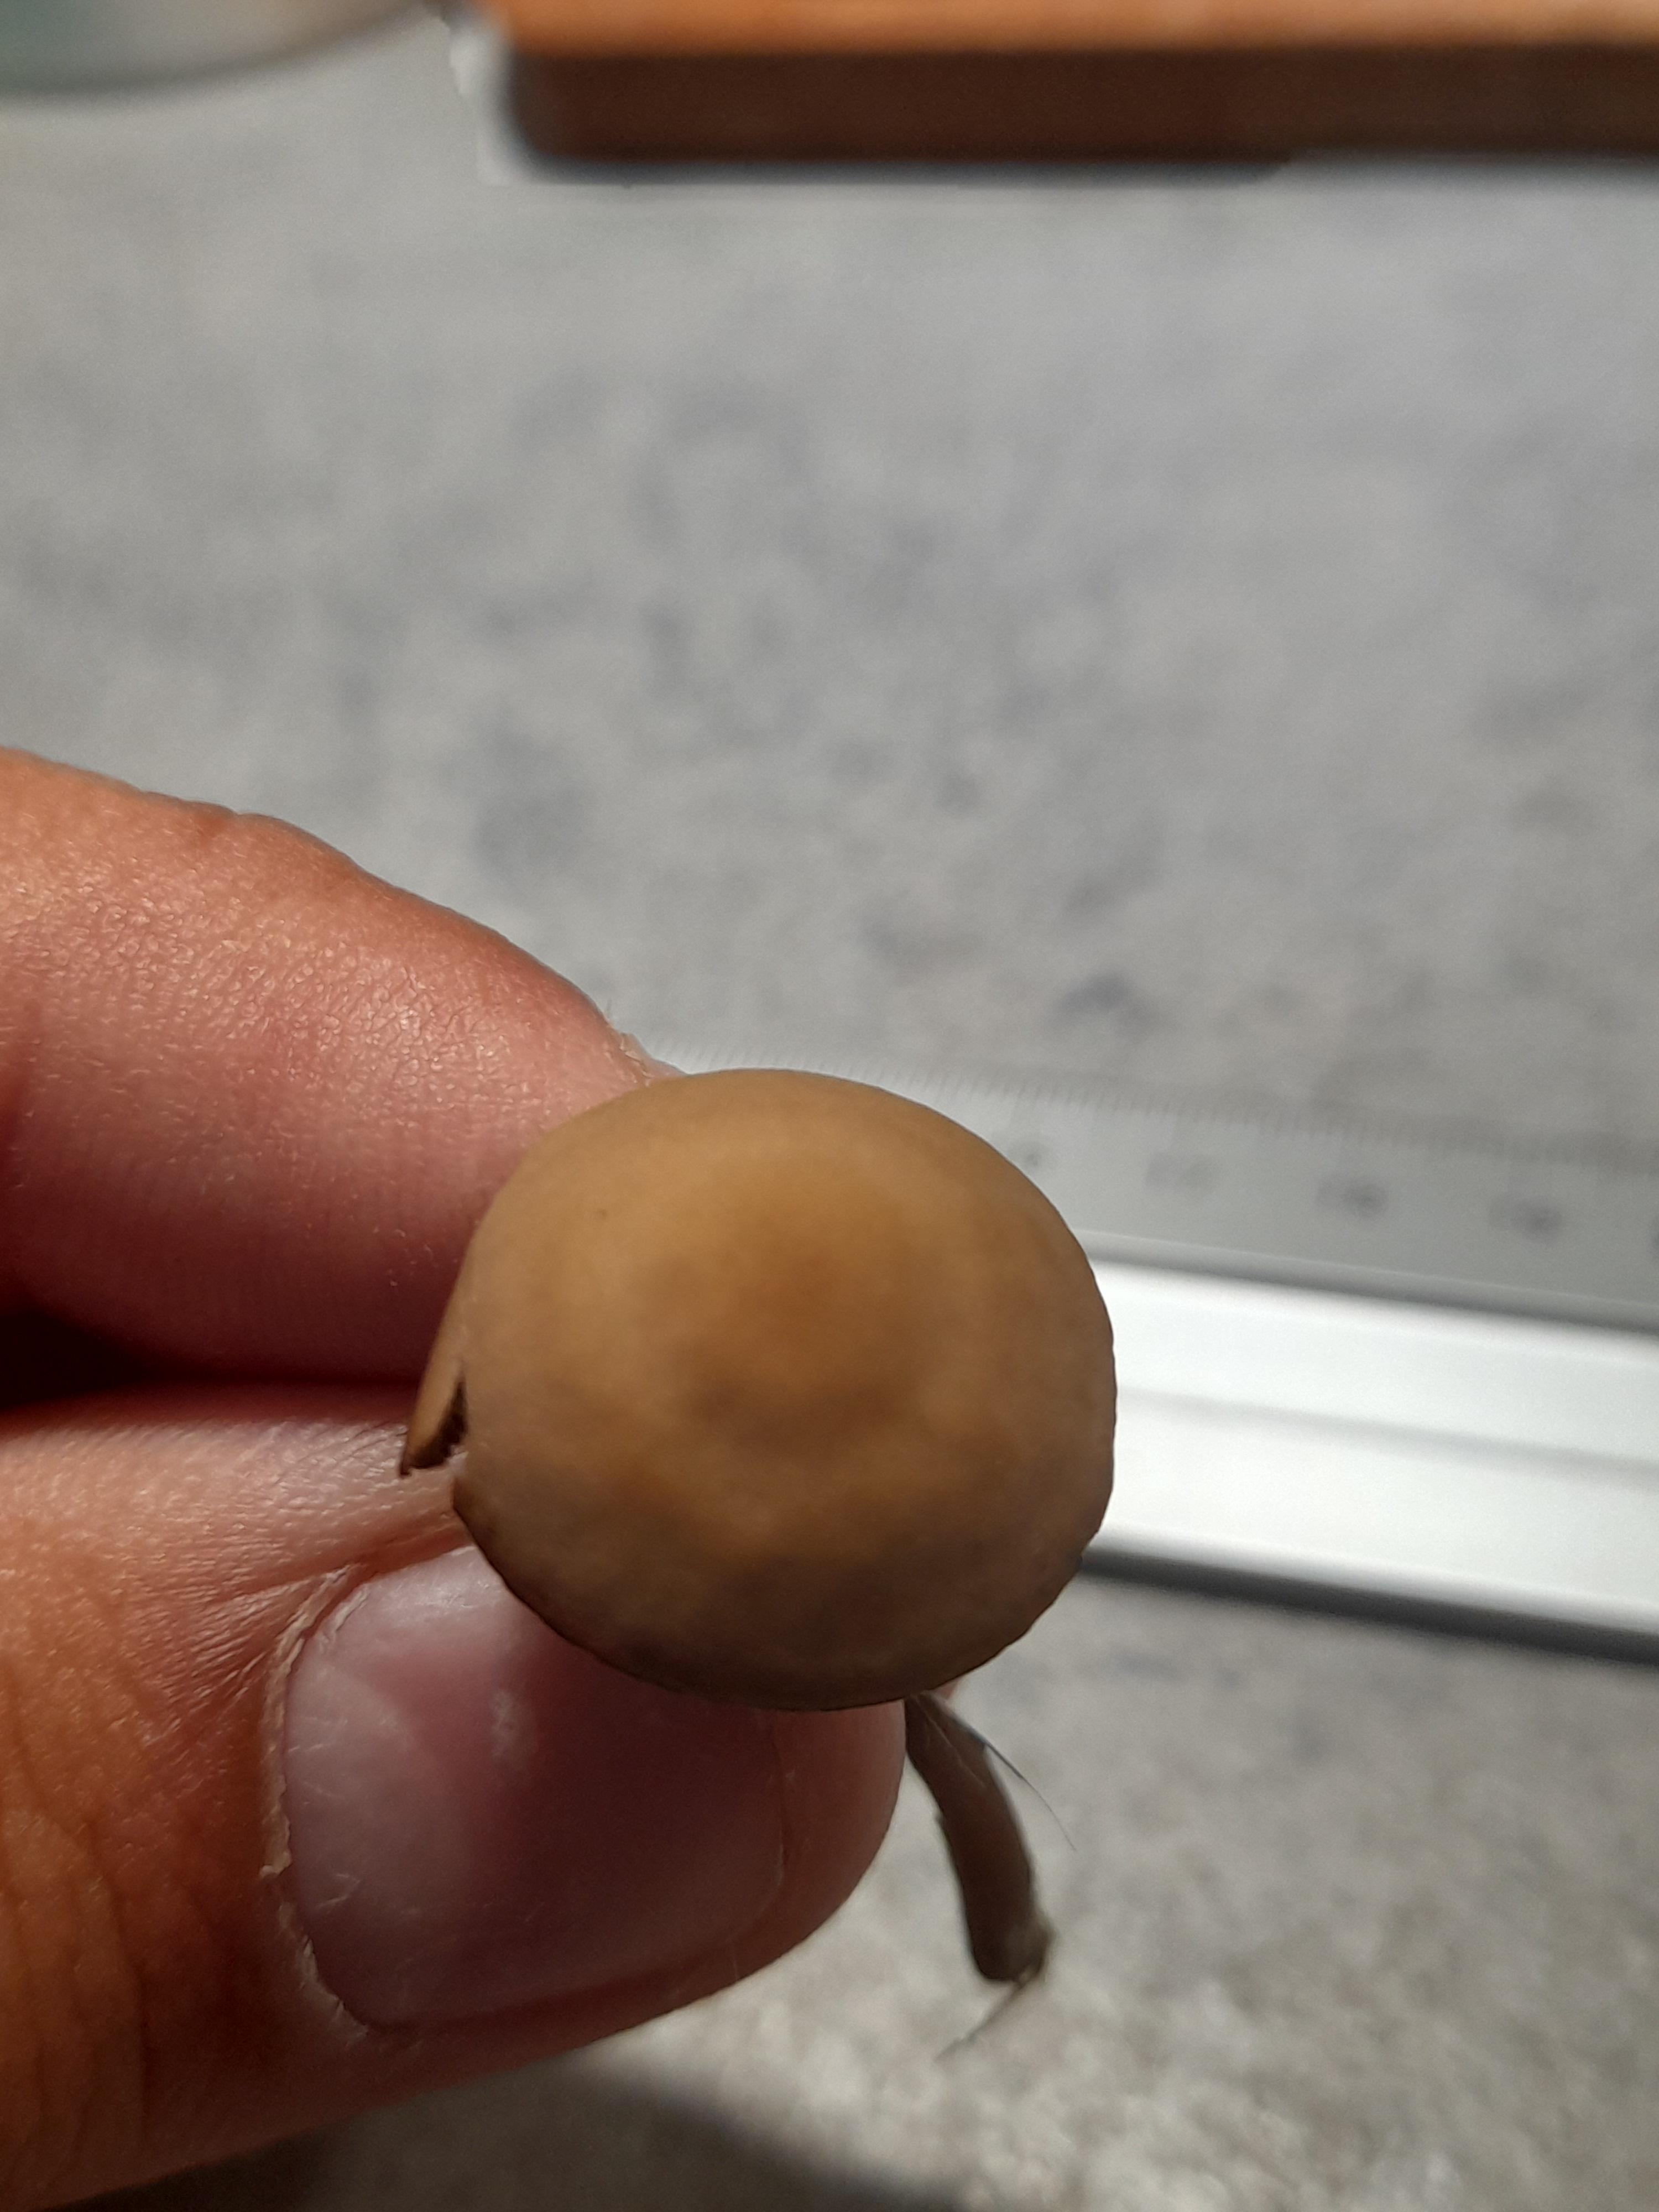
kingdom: Fungi
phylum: Basidiomycota
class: Agaricomycetes
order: Agaricales
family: Bolbitiaceae
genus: Panaeolina
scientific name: Panaeolina foenisecii
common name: høslætsvamp
